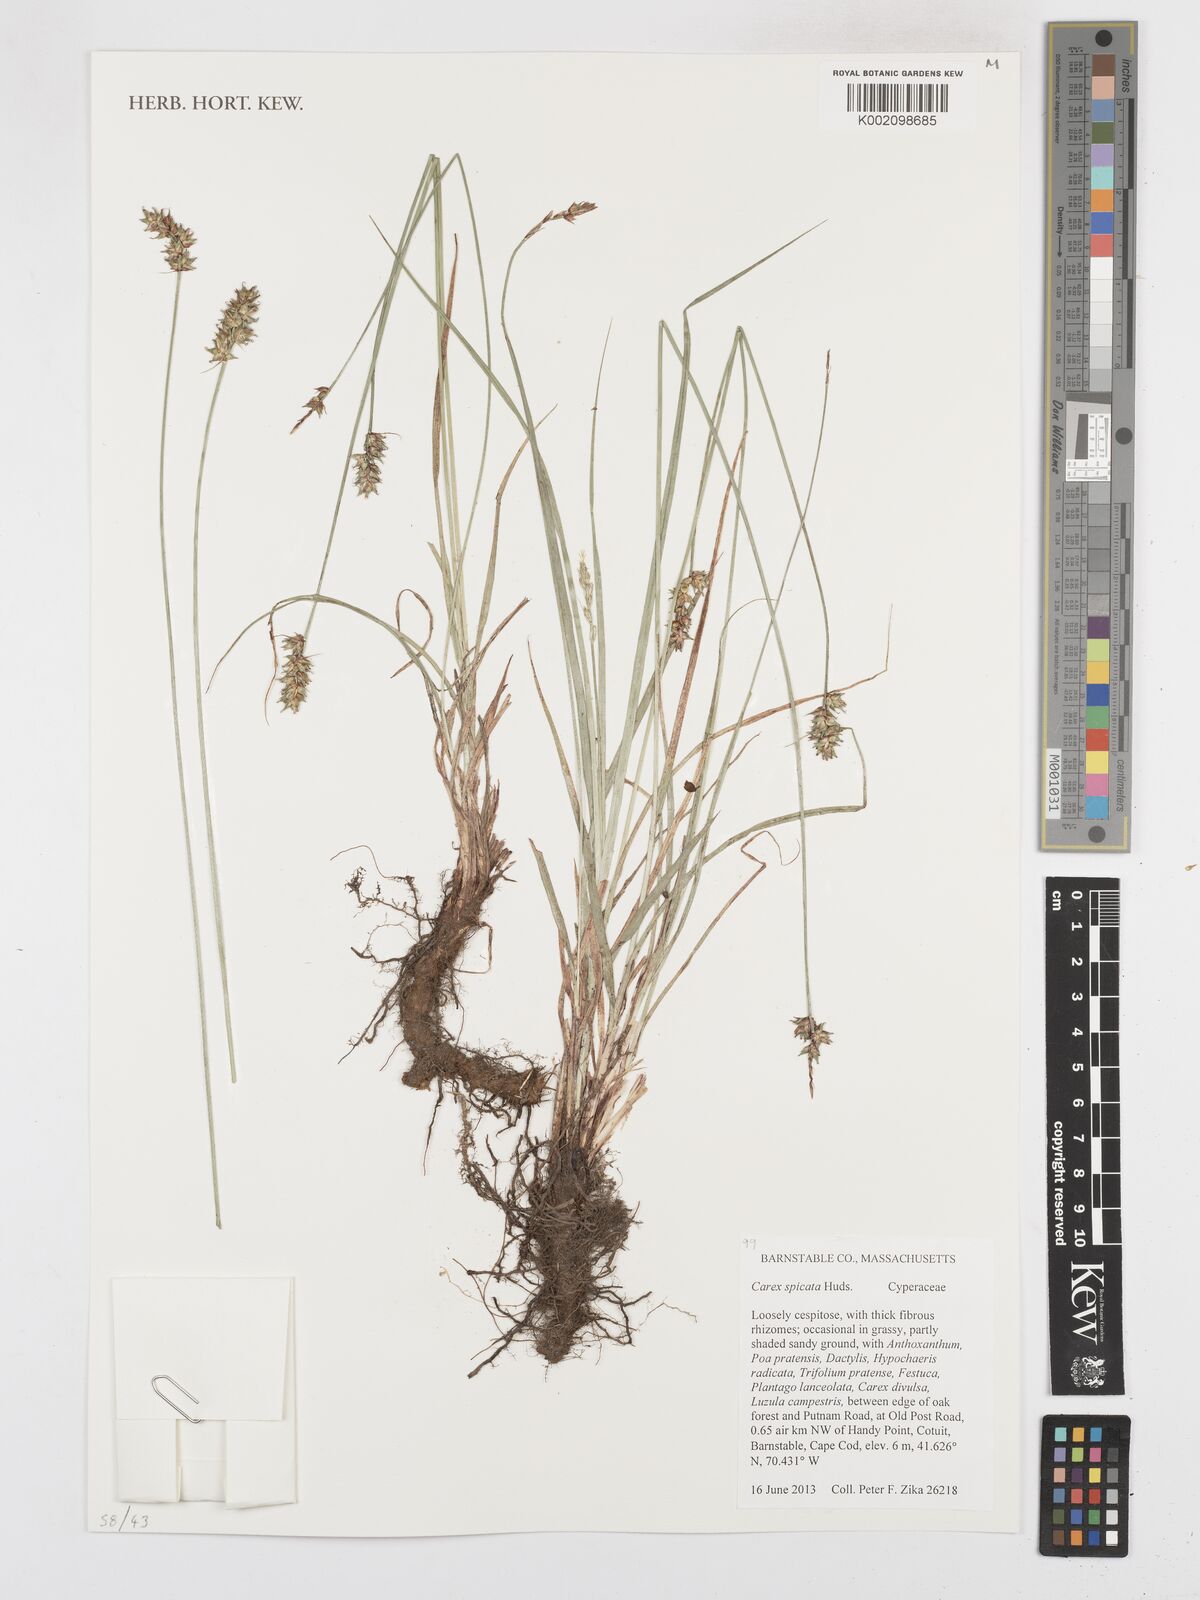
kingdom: Plantae
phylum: Tracheophyta
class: Liliopsida
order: Poales
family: Cyperaceae
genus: Carex
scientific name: Carex spicata
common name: Spiked sedge
